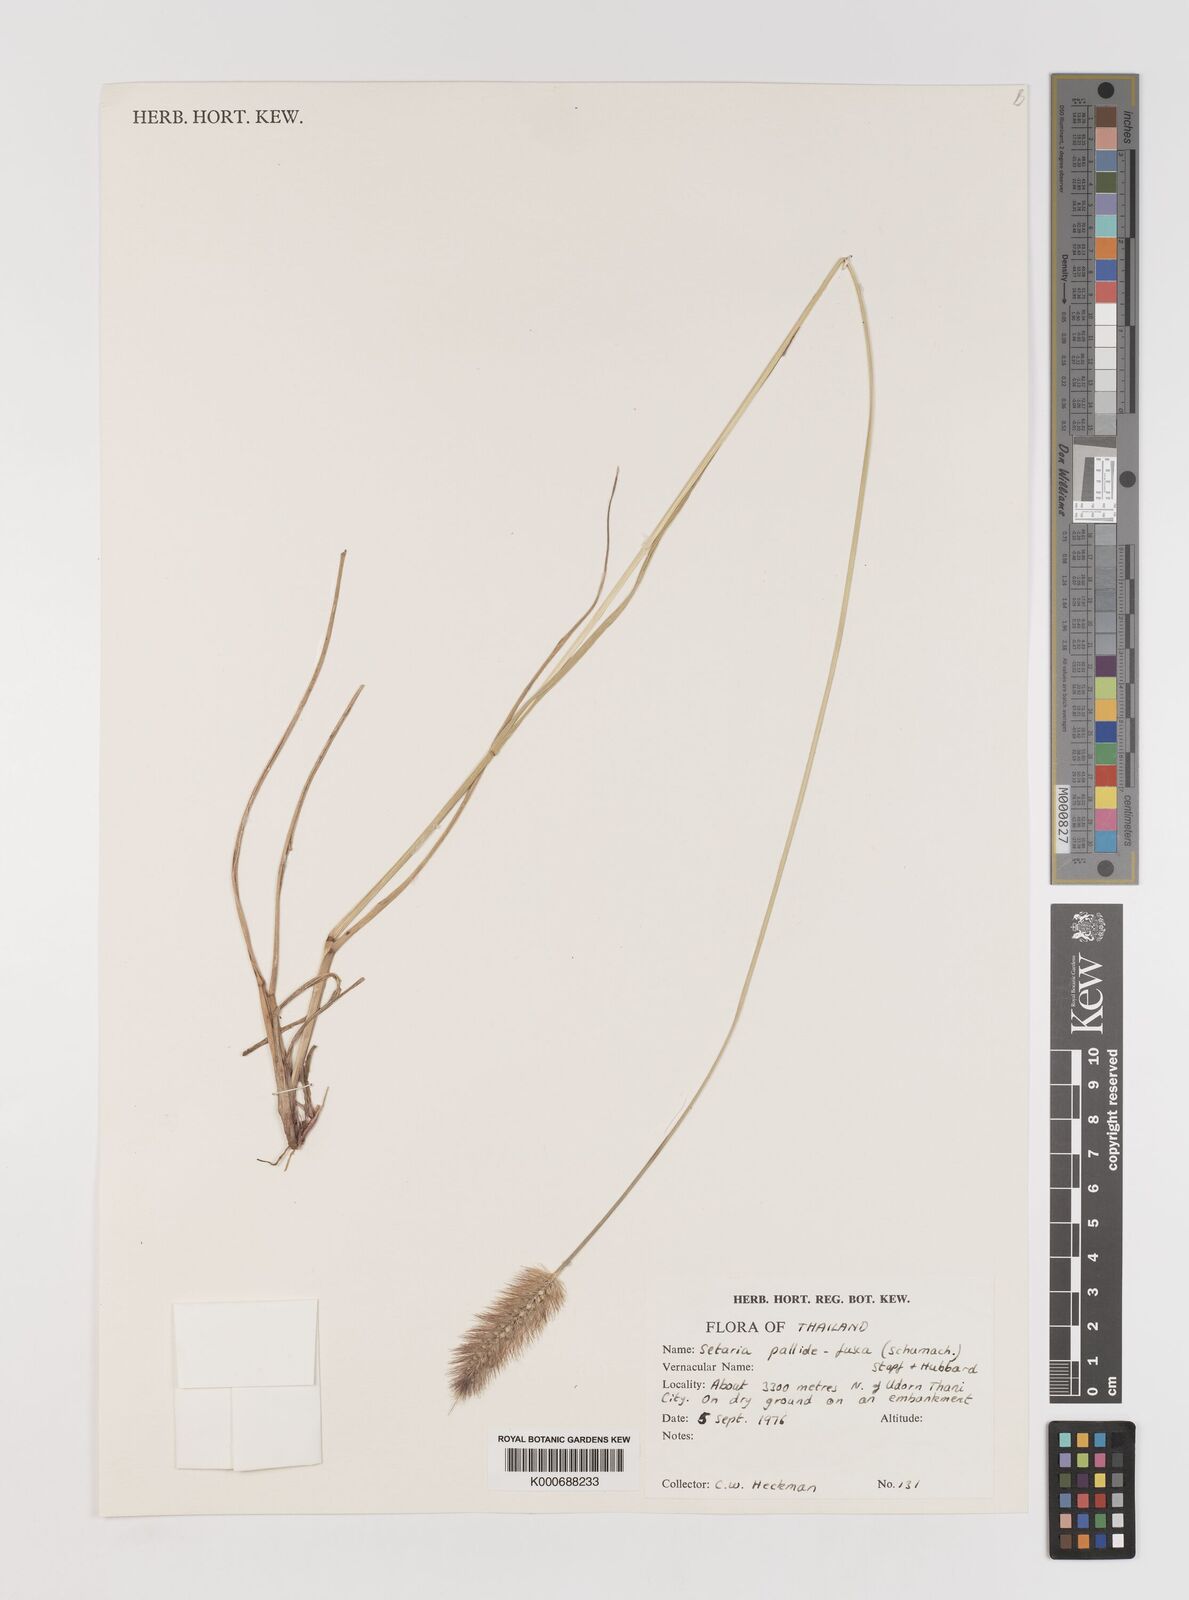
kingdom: Plantae
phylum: Tracheophyta
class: Liliopsida
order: Poales
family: Poaceae
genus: Setaria
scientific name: Setaria pumila
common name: Yellow bristle-grass
